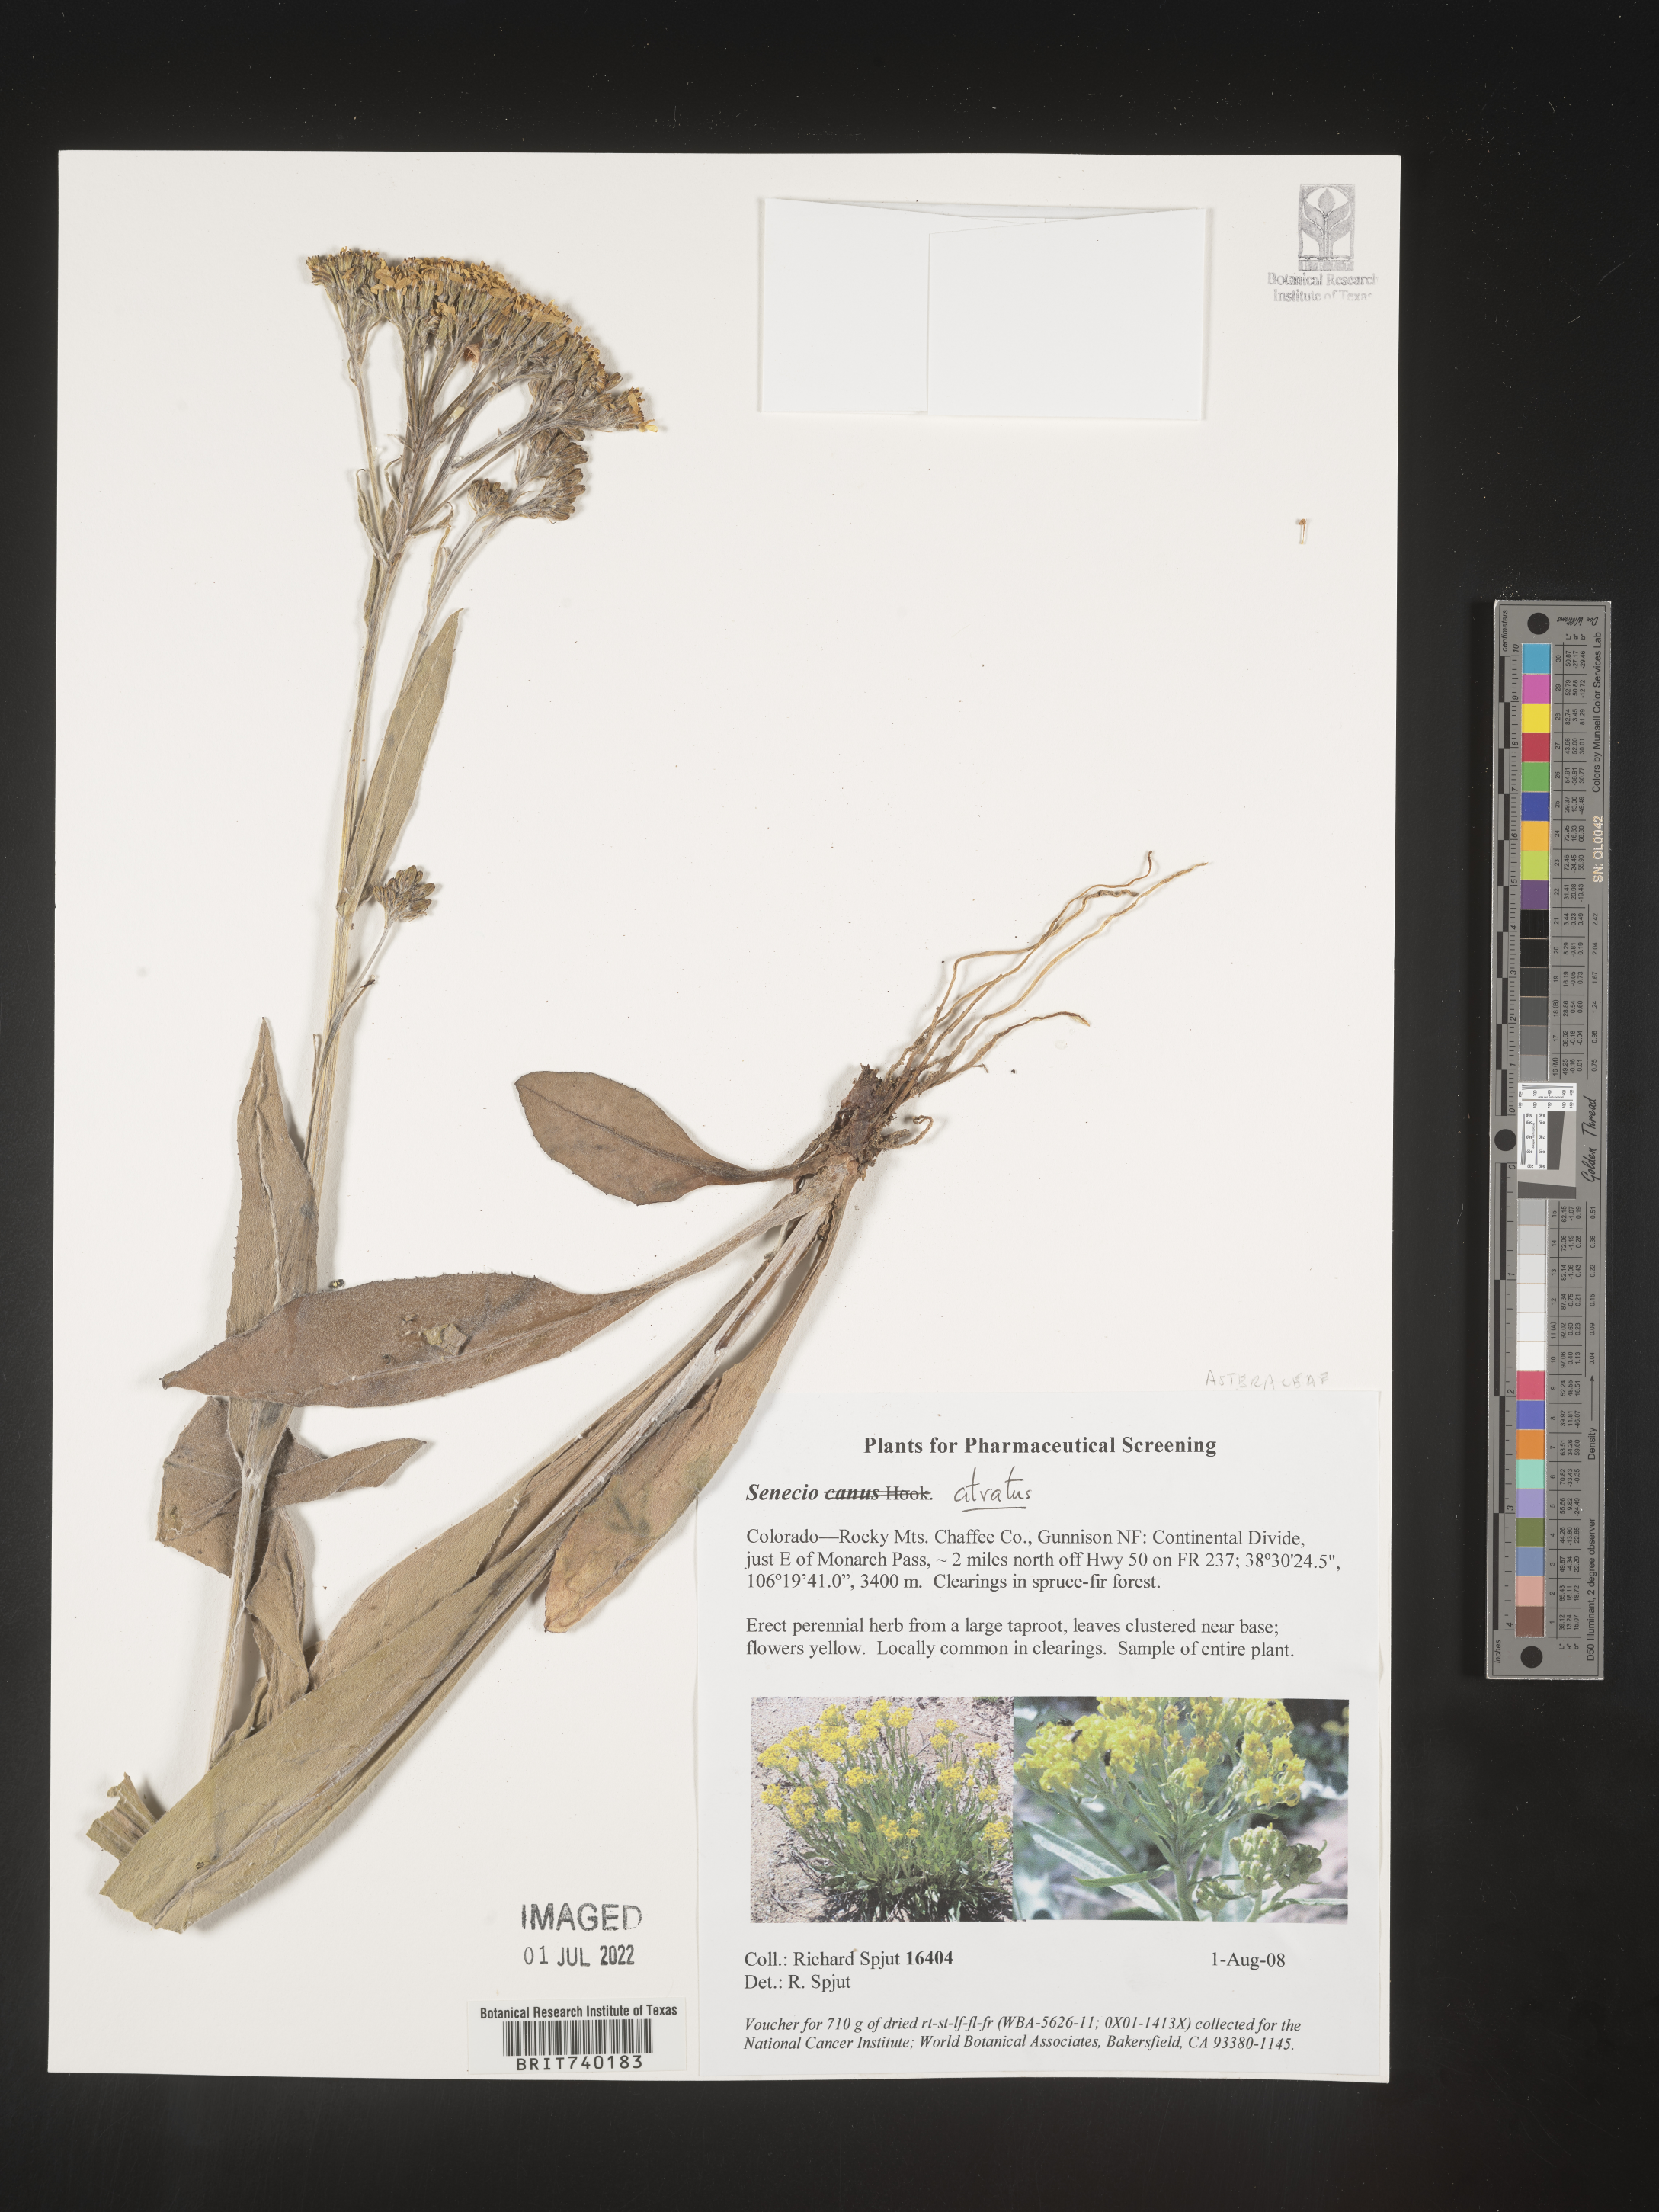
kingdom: Plantae
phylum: Tracheophyta
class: Magnoliopsida
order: Asterales
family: Asteraceae
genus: Senecio
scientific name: Senecio atratus
